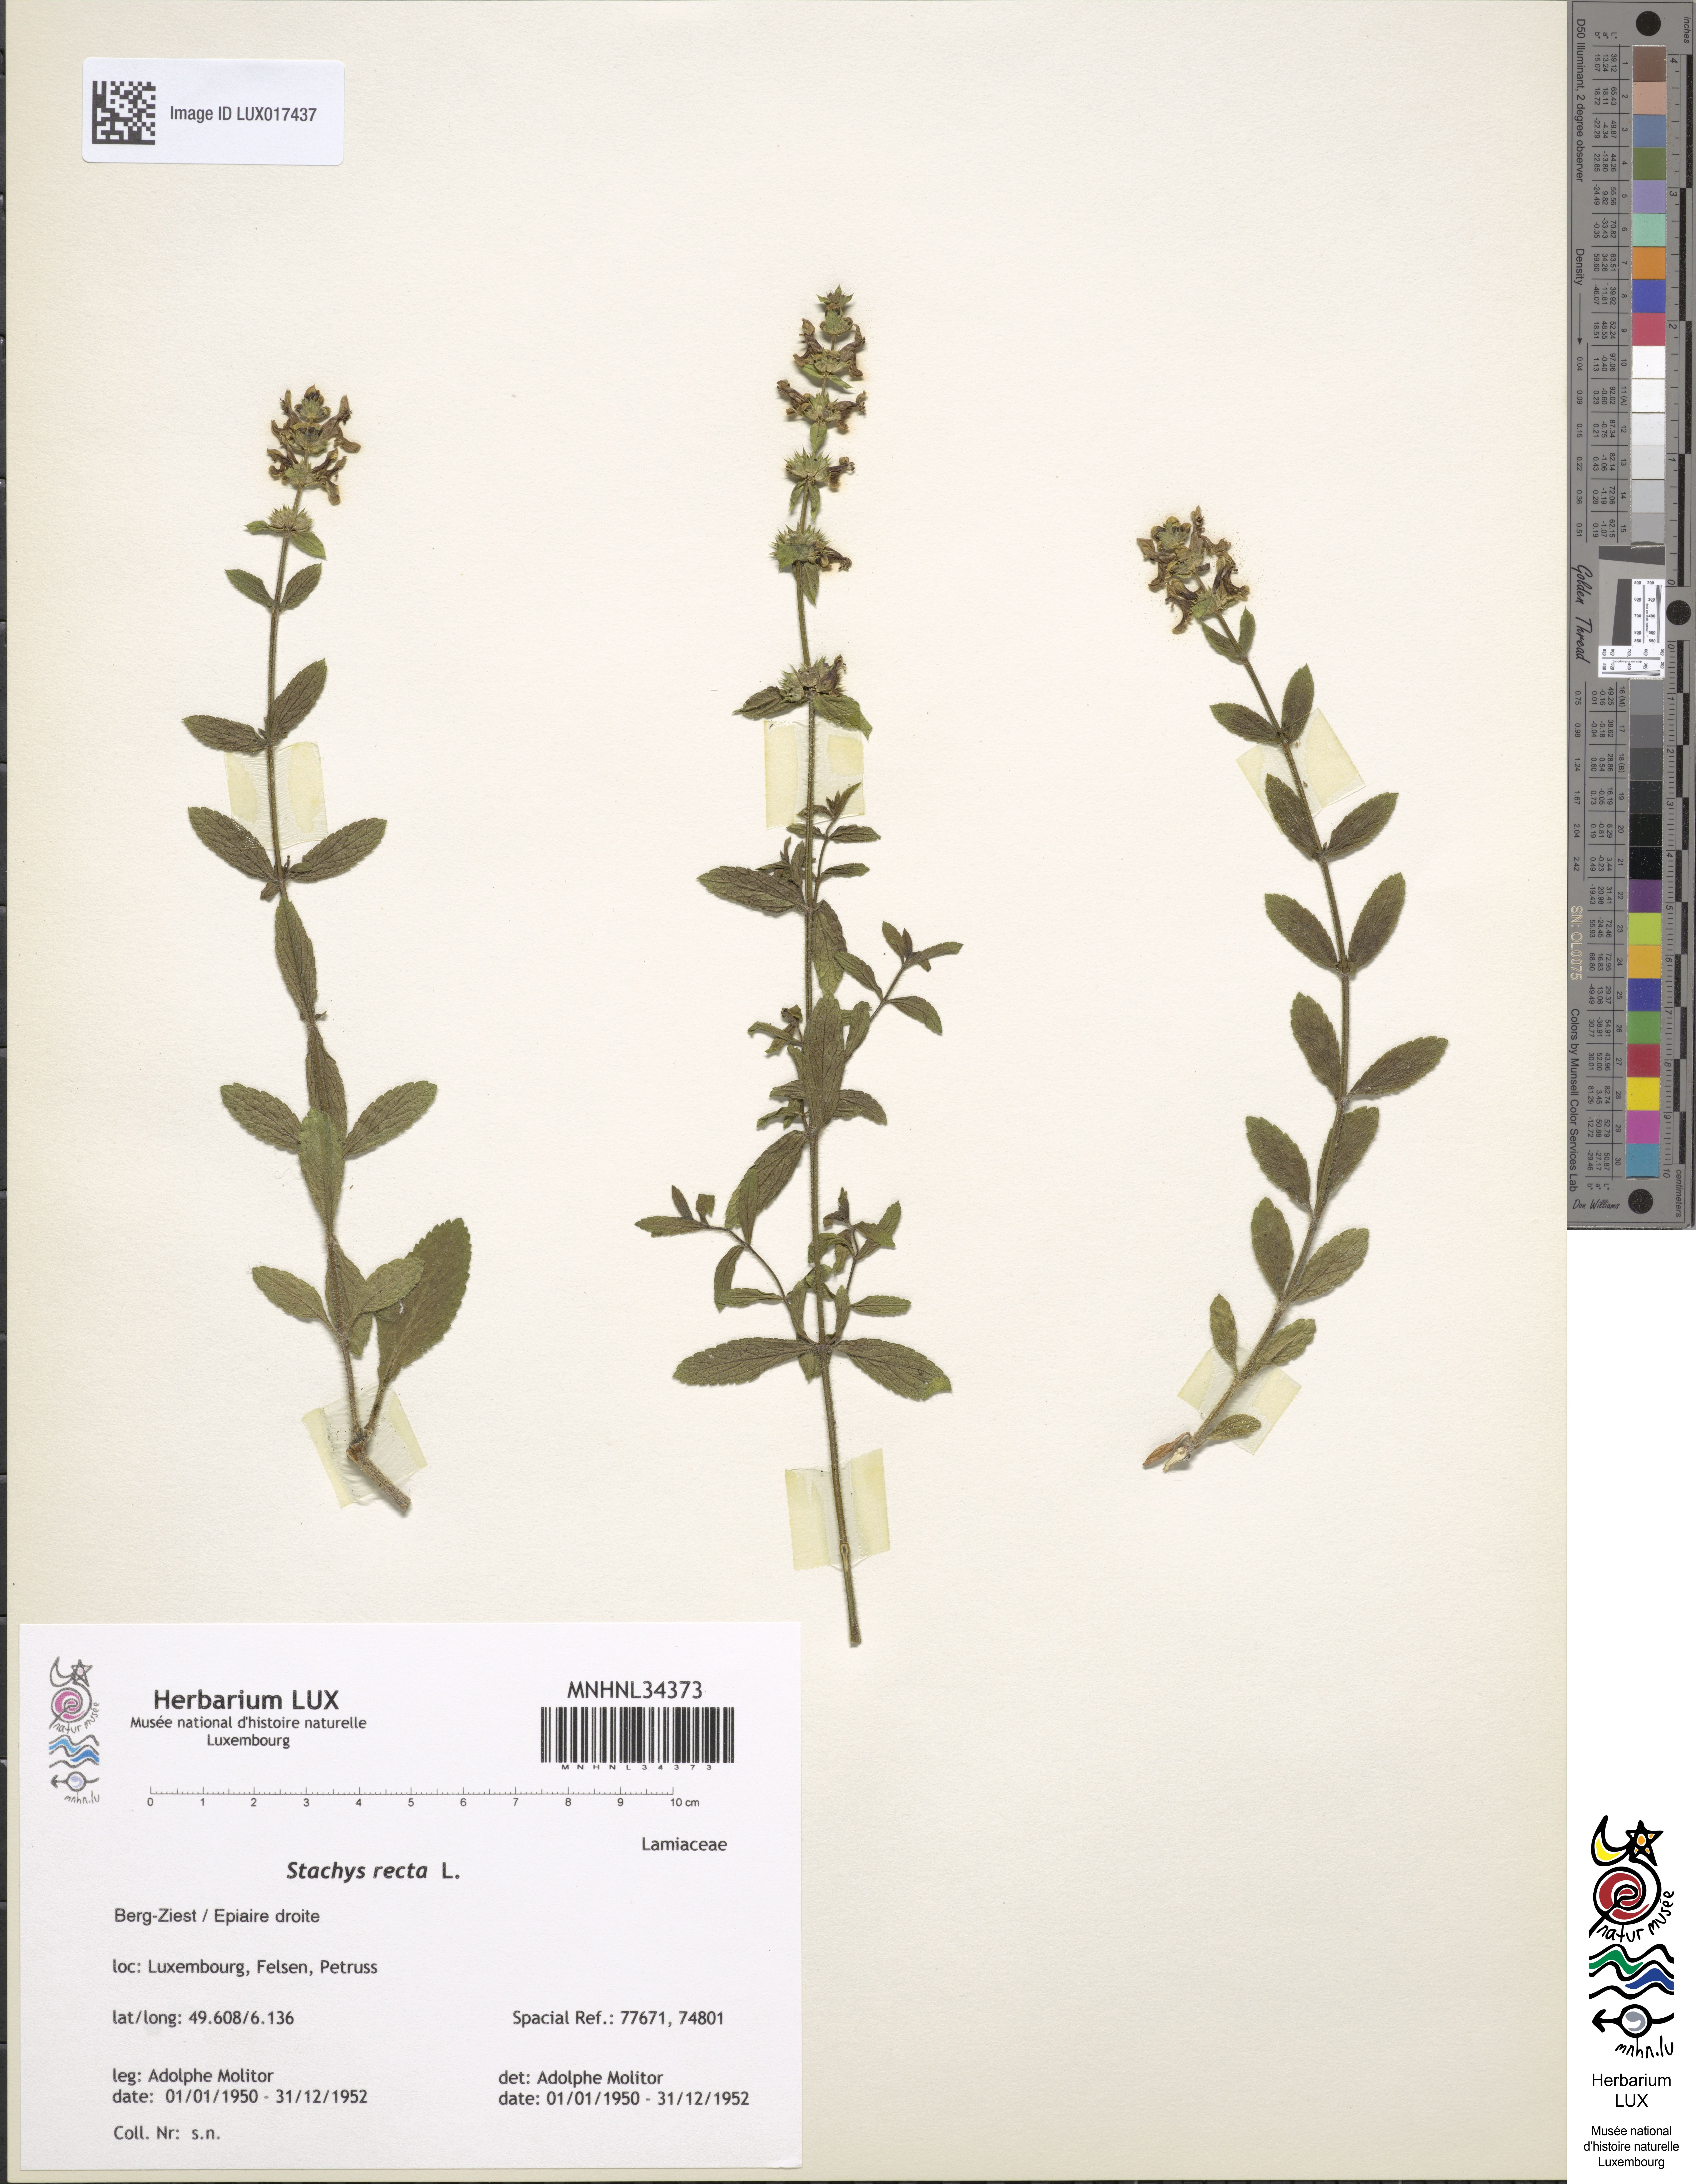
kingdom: Plantae
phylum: Tracheophyta
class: Magnoliopsida
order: Lamiales
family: Lamiaceae
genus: Stachys
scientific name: Stachys recta
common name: Perennial yellow-woundwort
